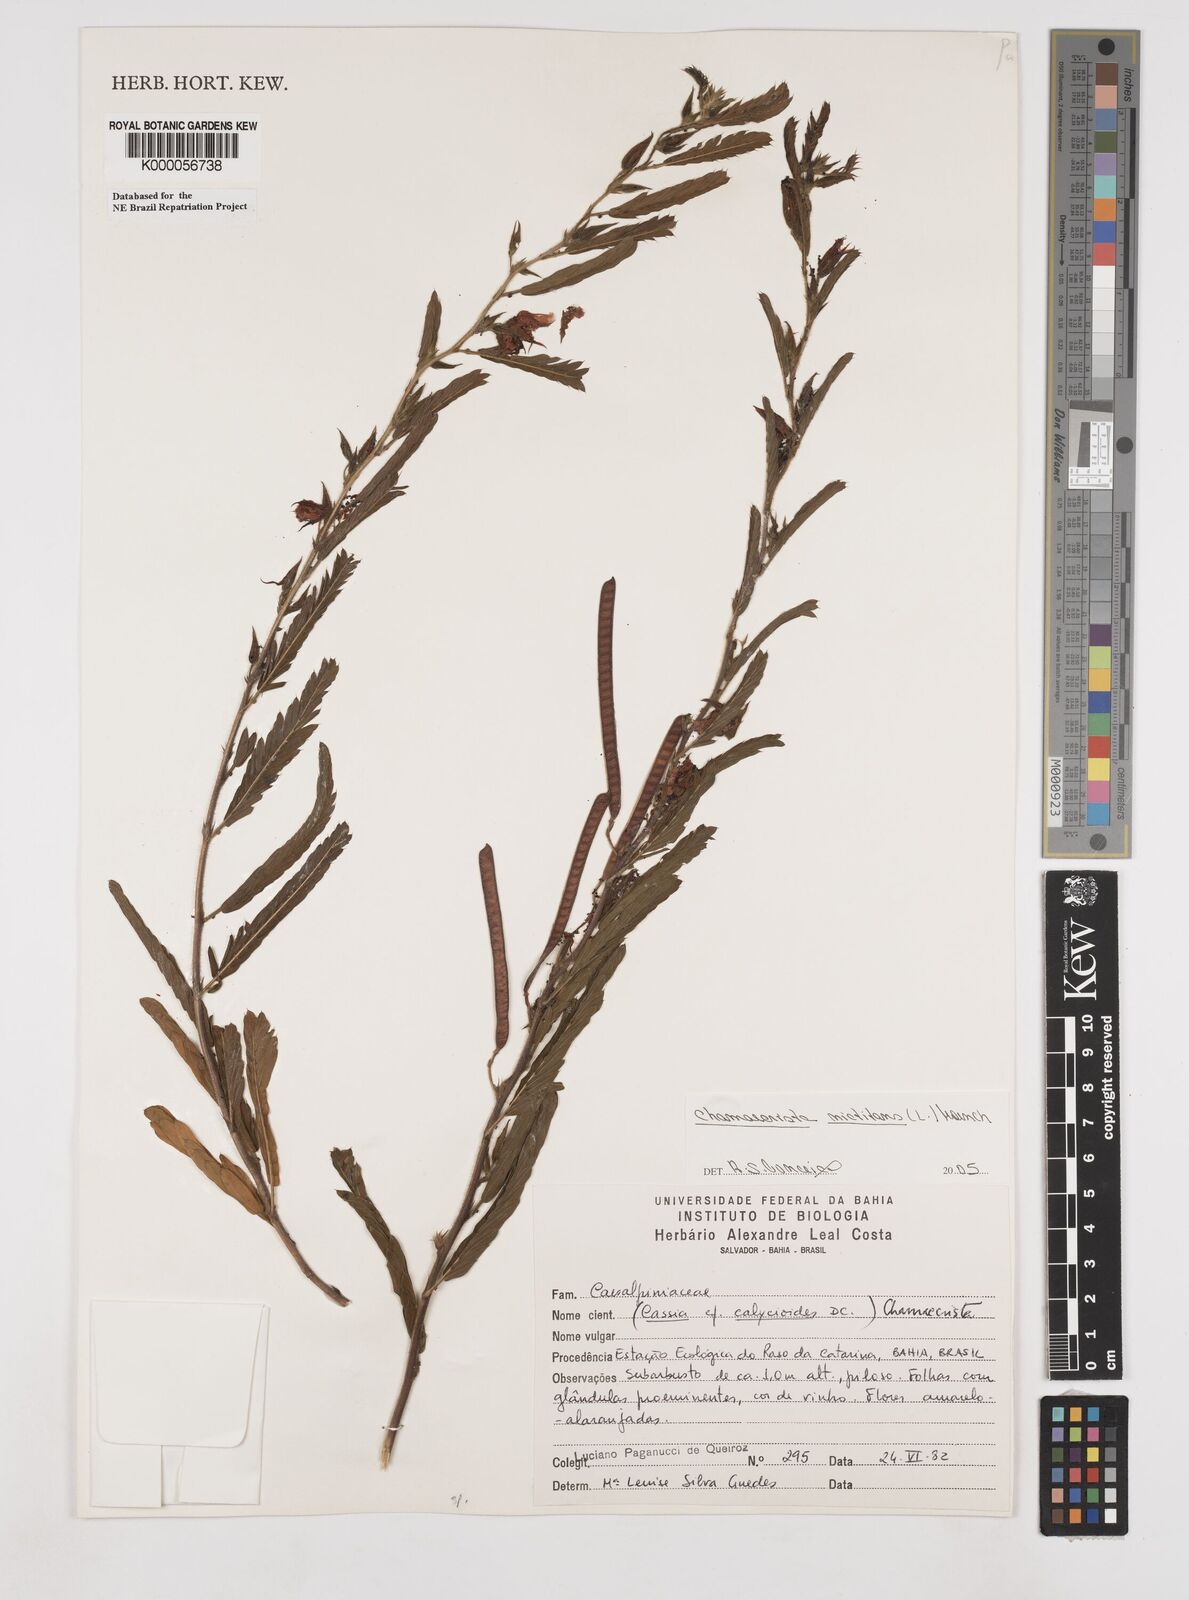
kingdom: Plantae
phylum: Tracheophyta
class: Magnoliopsida
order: Fabales
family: Fabaceae
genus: Chamaecrista
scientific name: Chamaecrista
